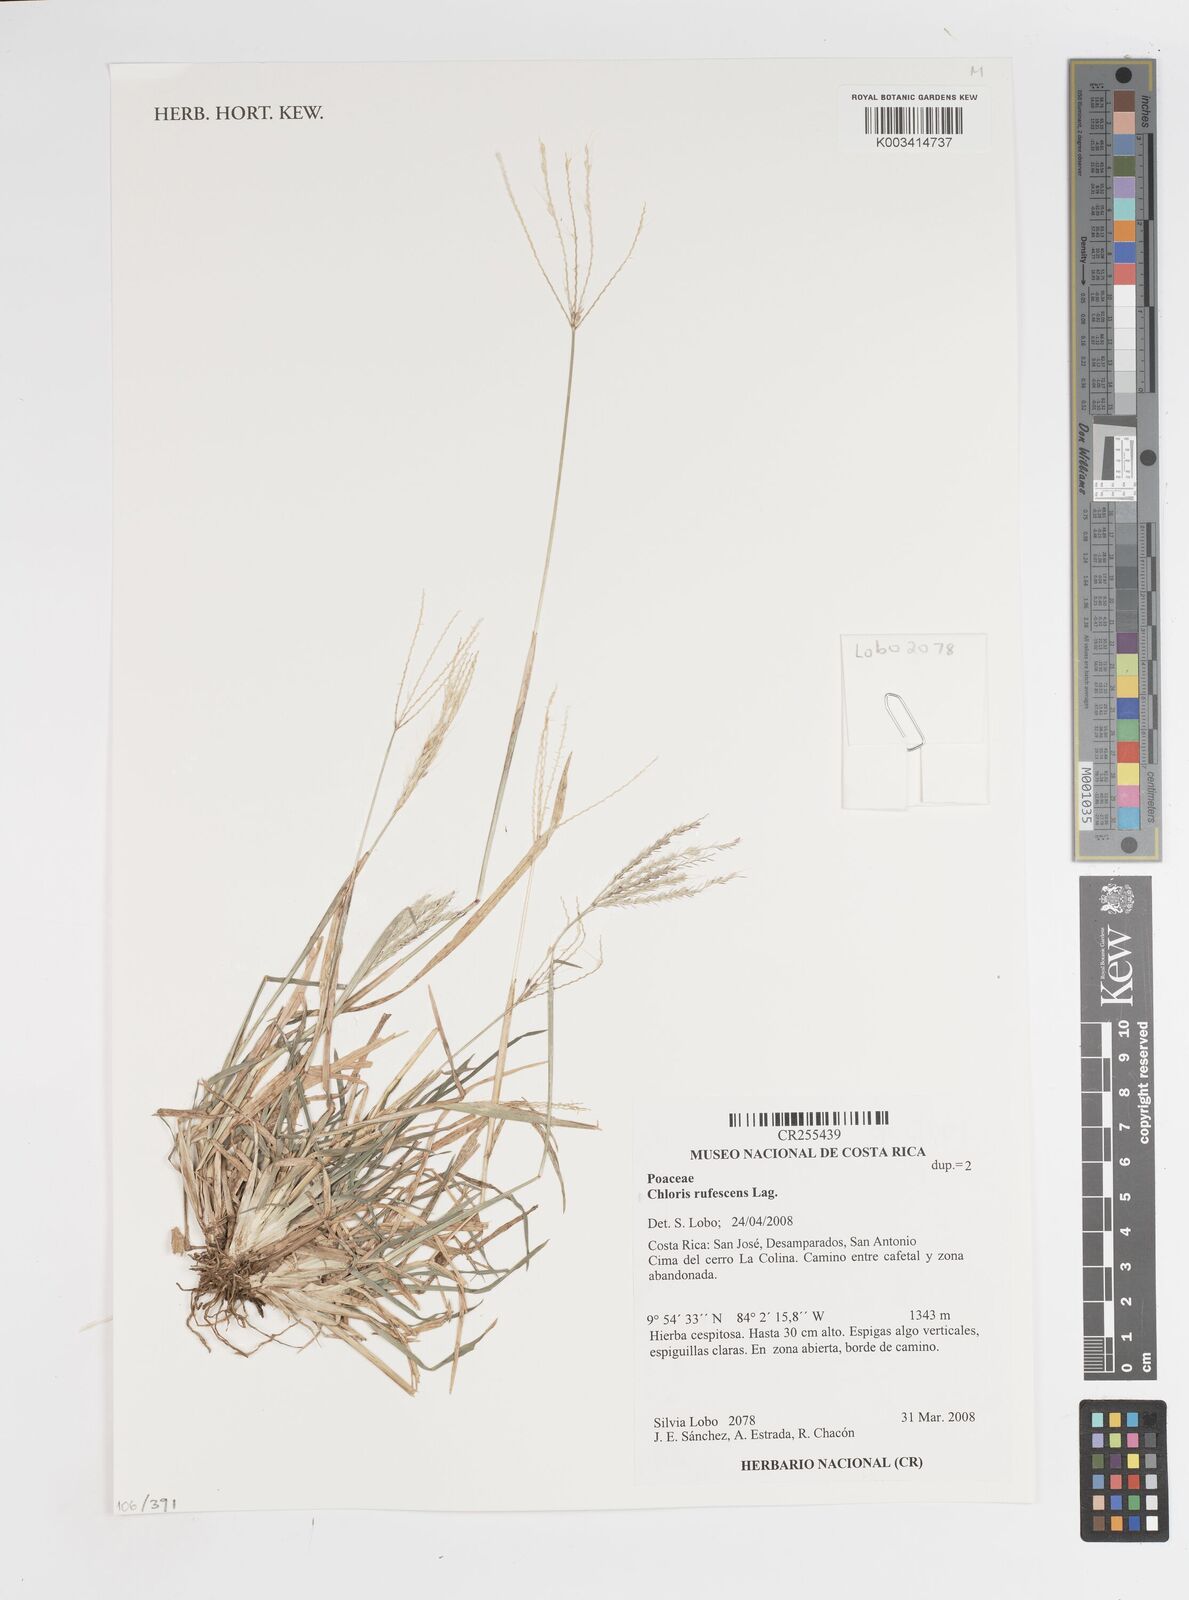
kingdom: Plantae
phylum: Tracheophyta
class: Liliopsida
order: Poales
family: Poaceae
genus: Chloris
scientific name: Chloris rufescens
